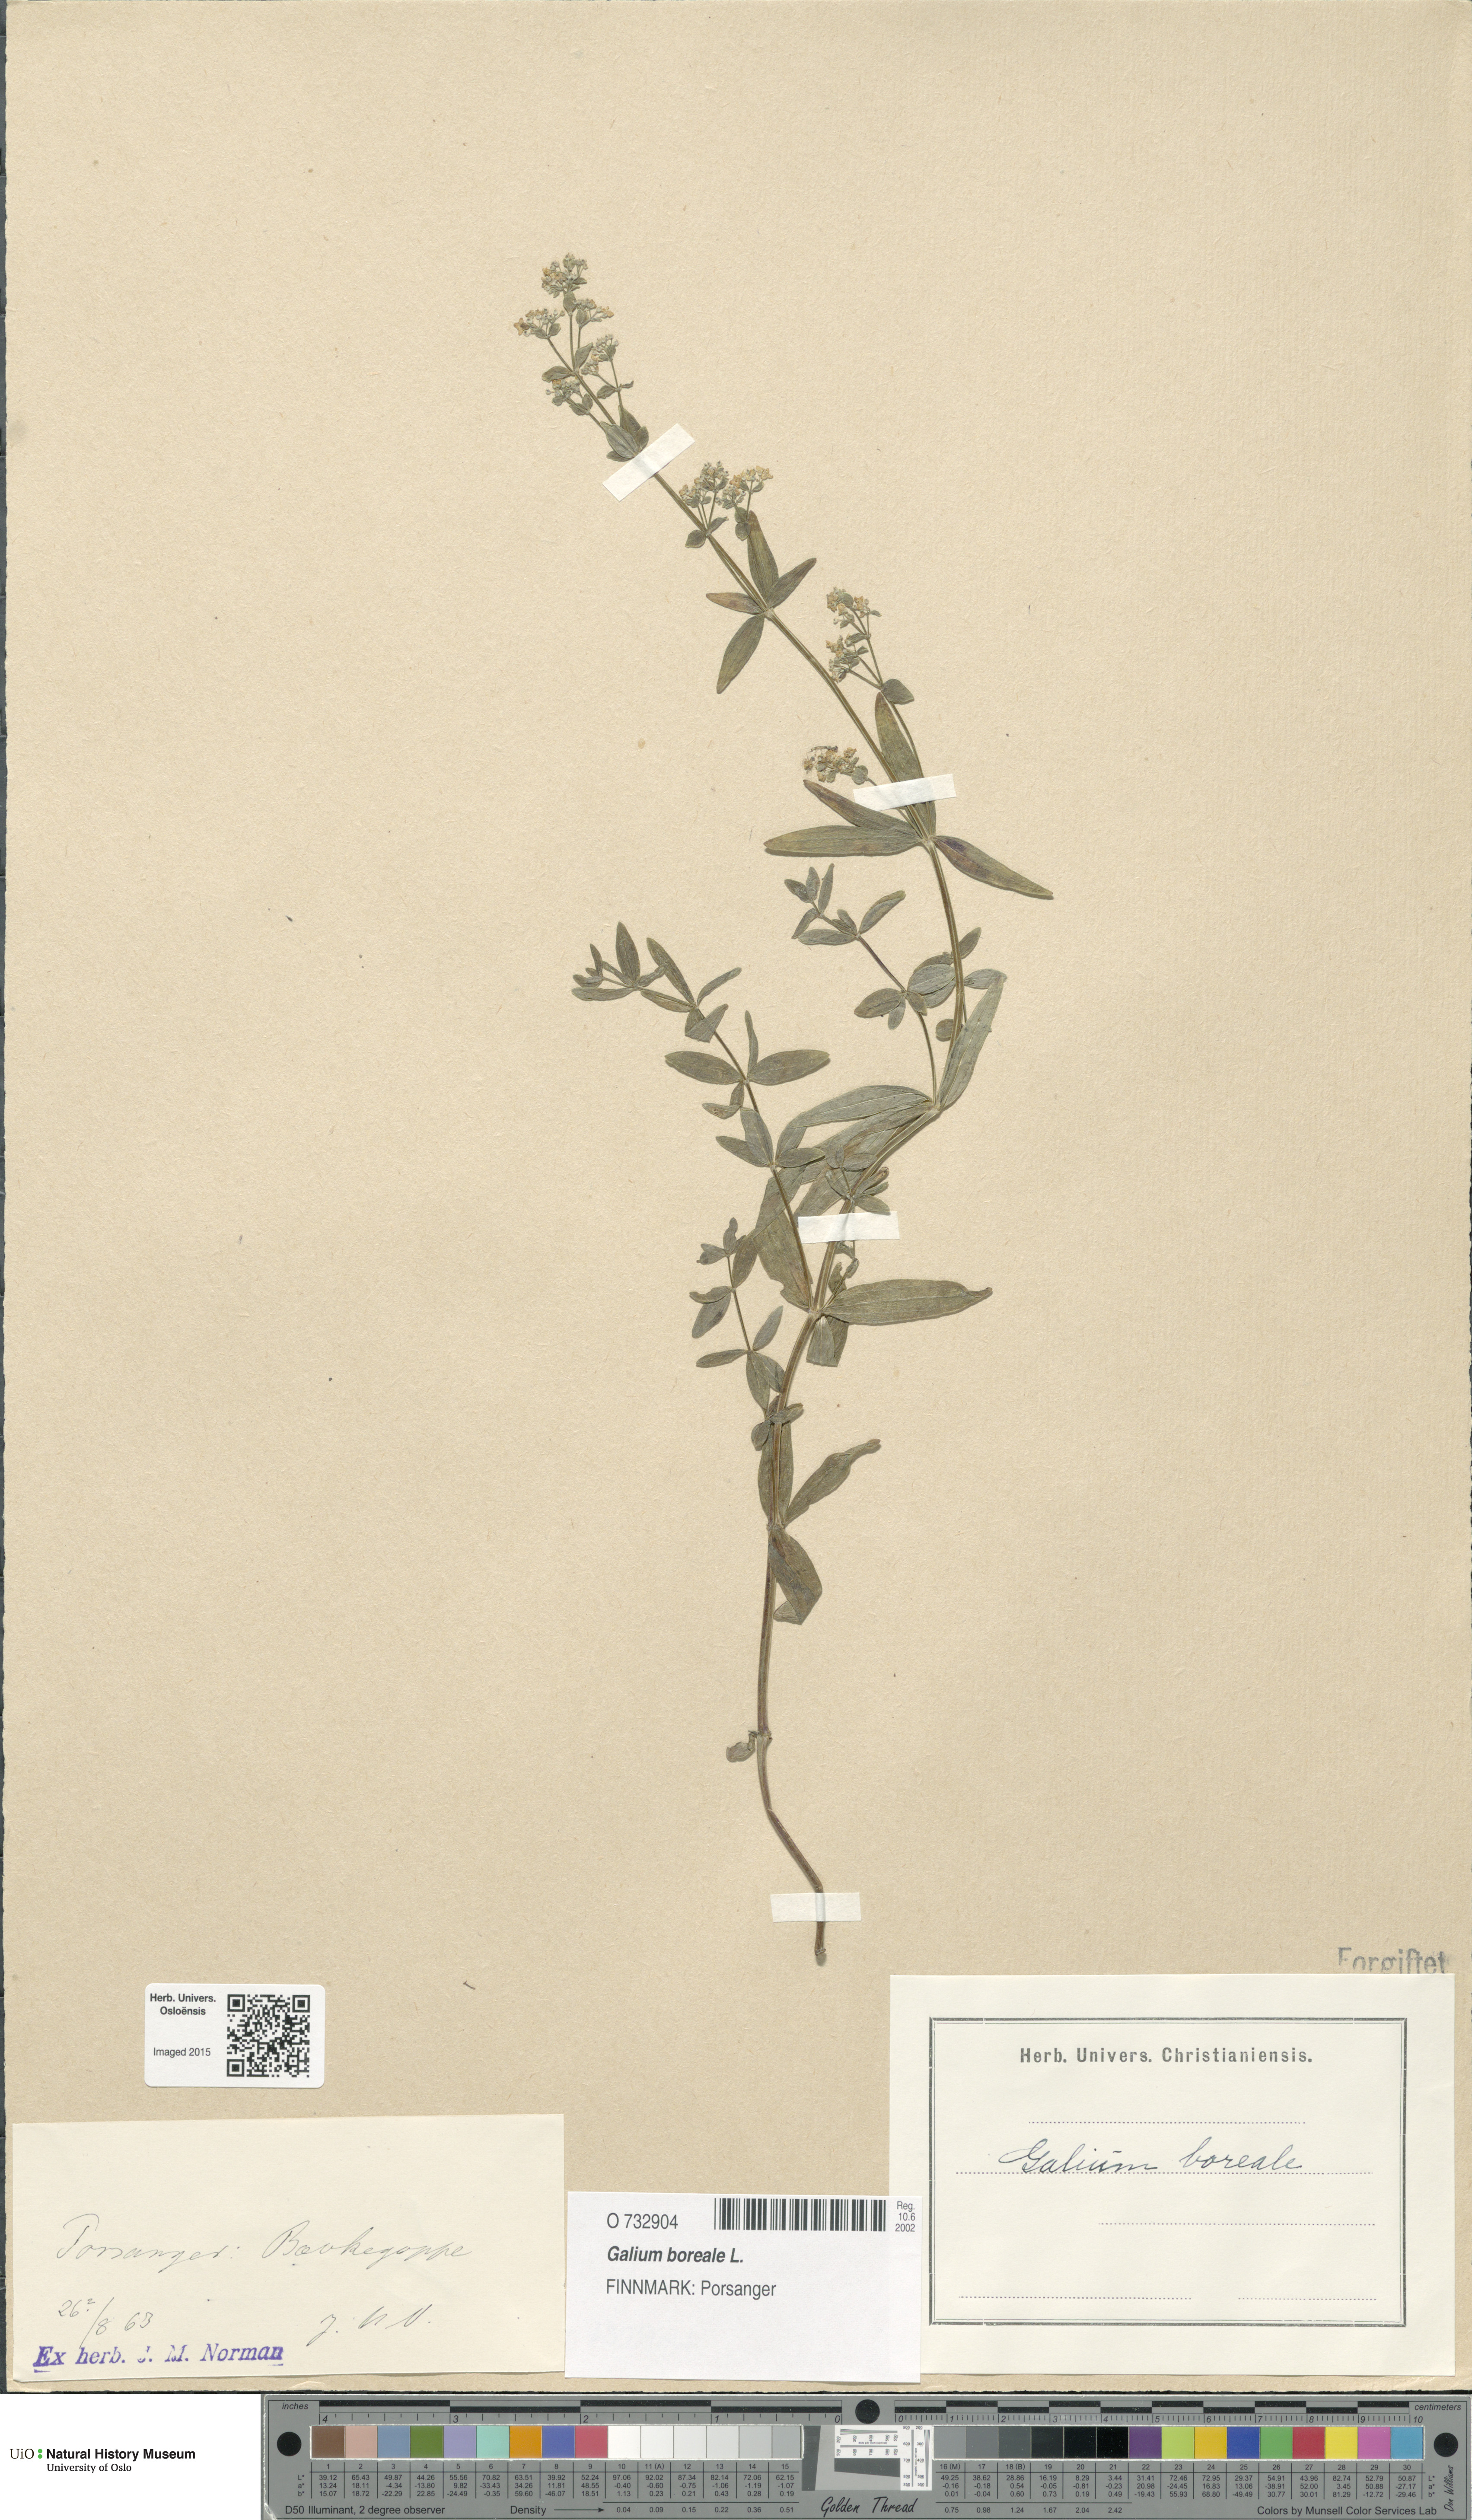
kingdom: Plantae
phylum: Tracheophyta
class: Magnoliopsida
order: Gentianales
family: Rubiaceae
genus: Galium
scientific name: Galium boreale
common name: Northern bedstraw
